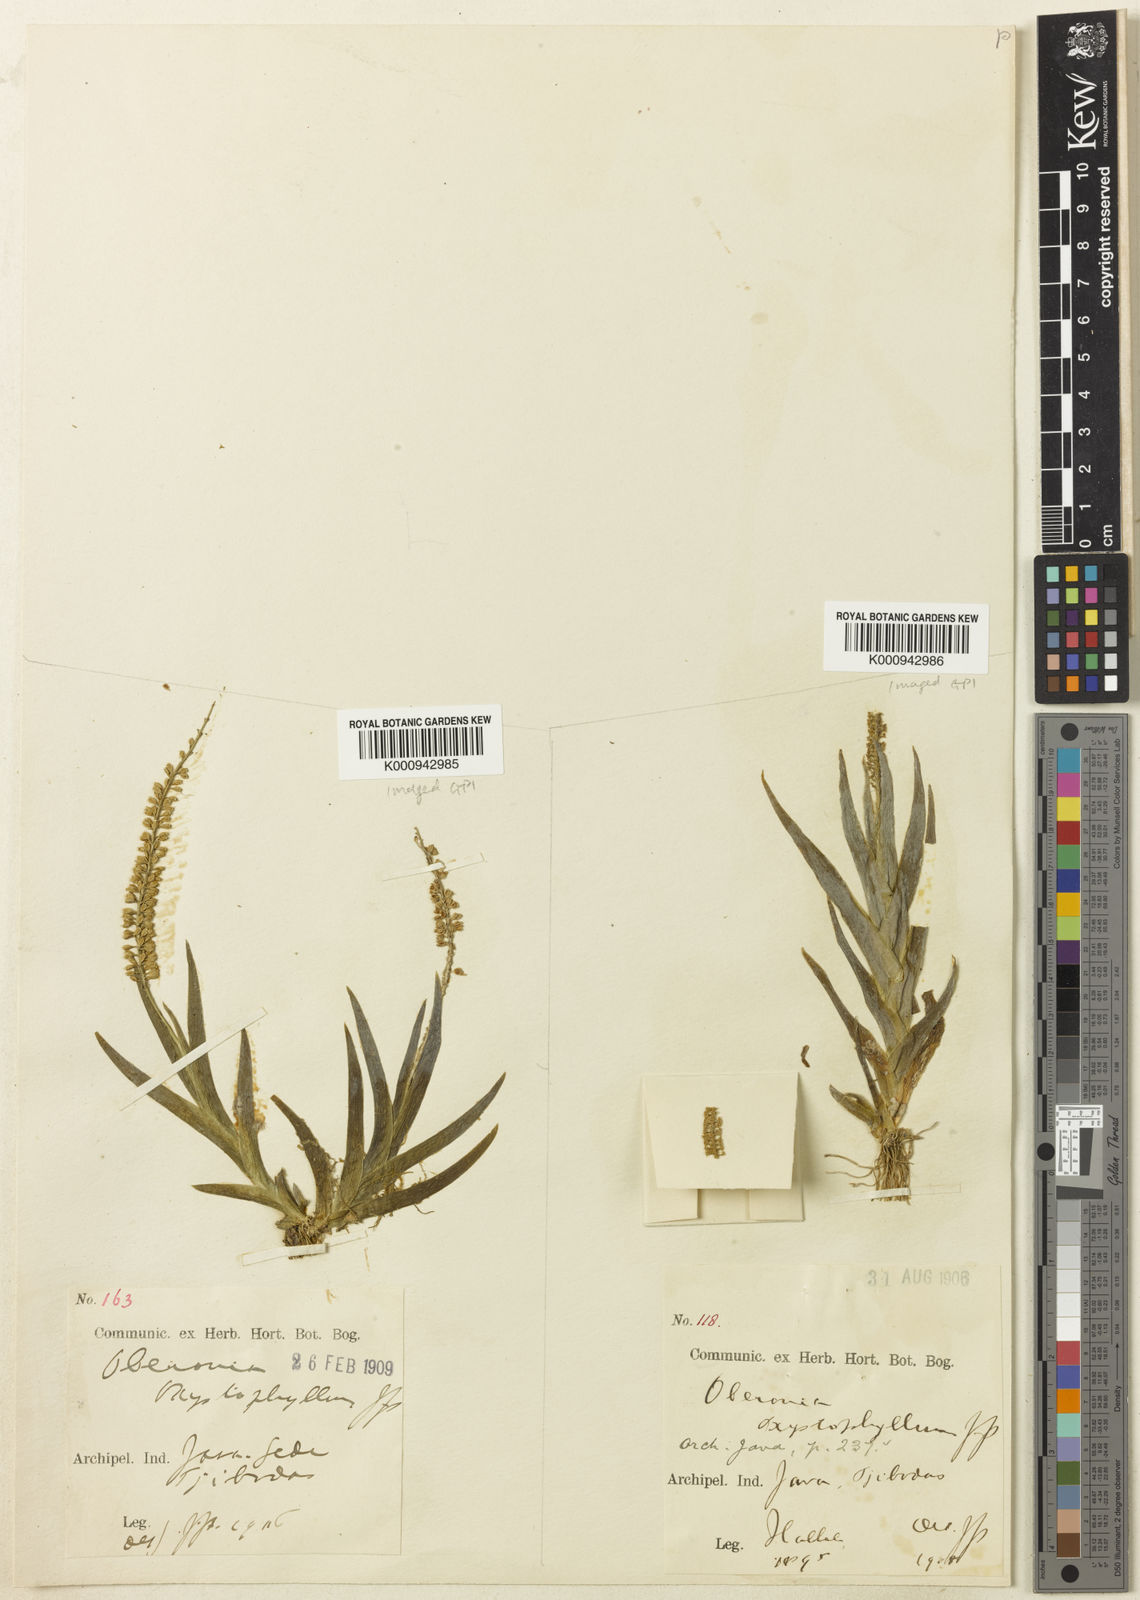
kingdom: Plantae
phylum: Tracheophyta
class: Liliopsida
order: Asparagales
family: Orchidaceae
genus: Oberonia
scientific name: Oberonia equitans
